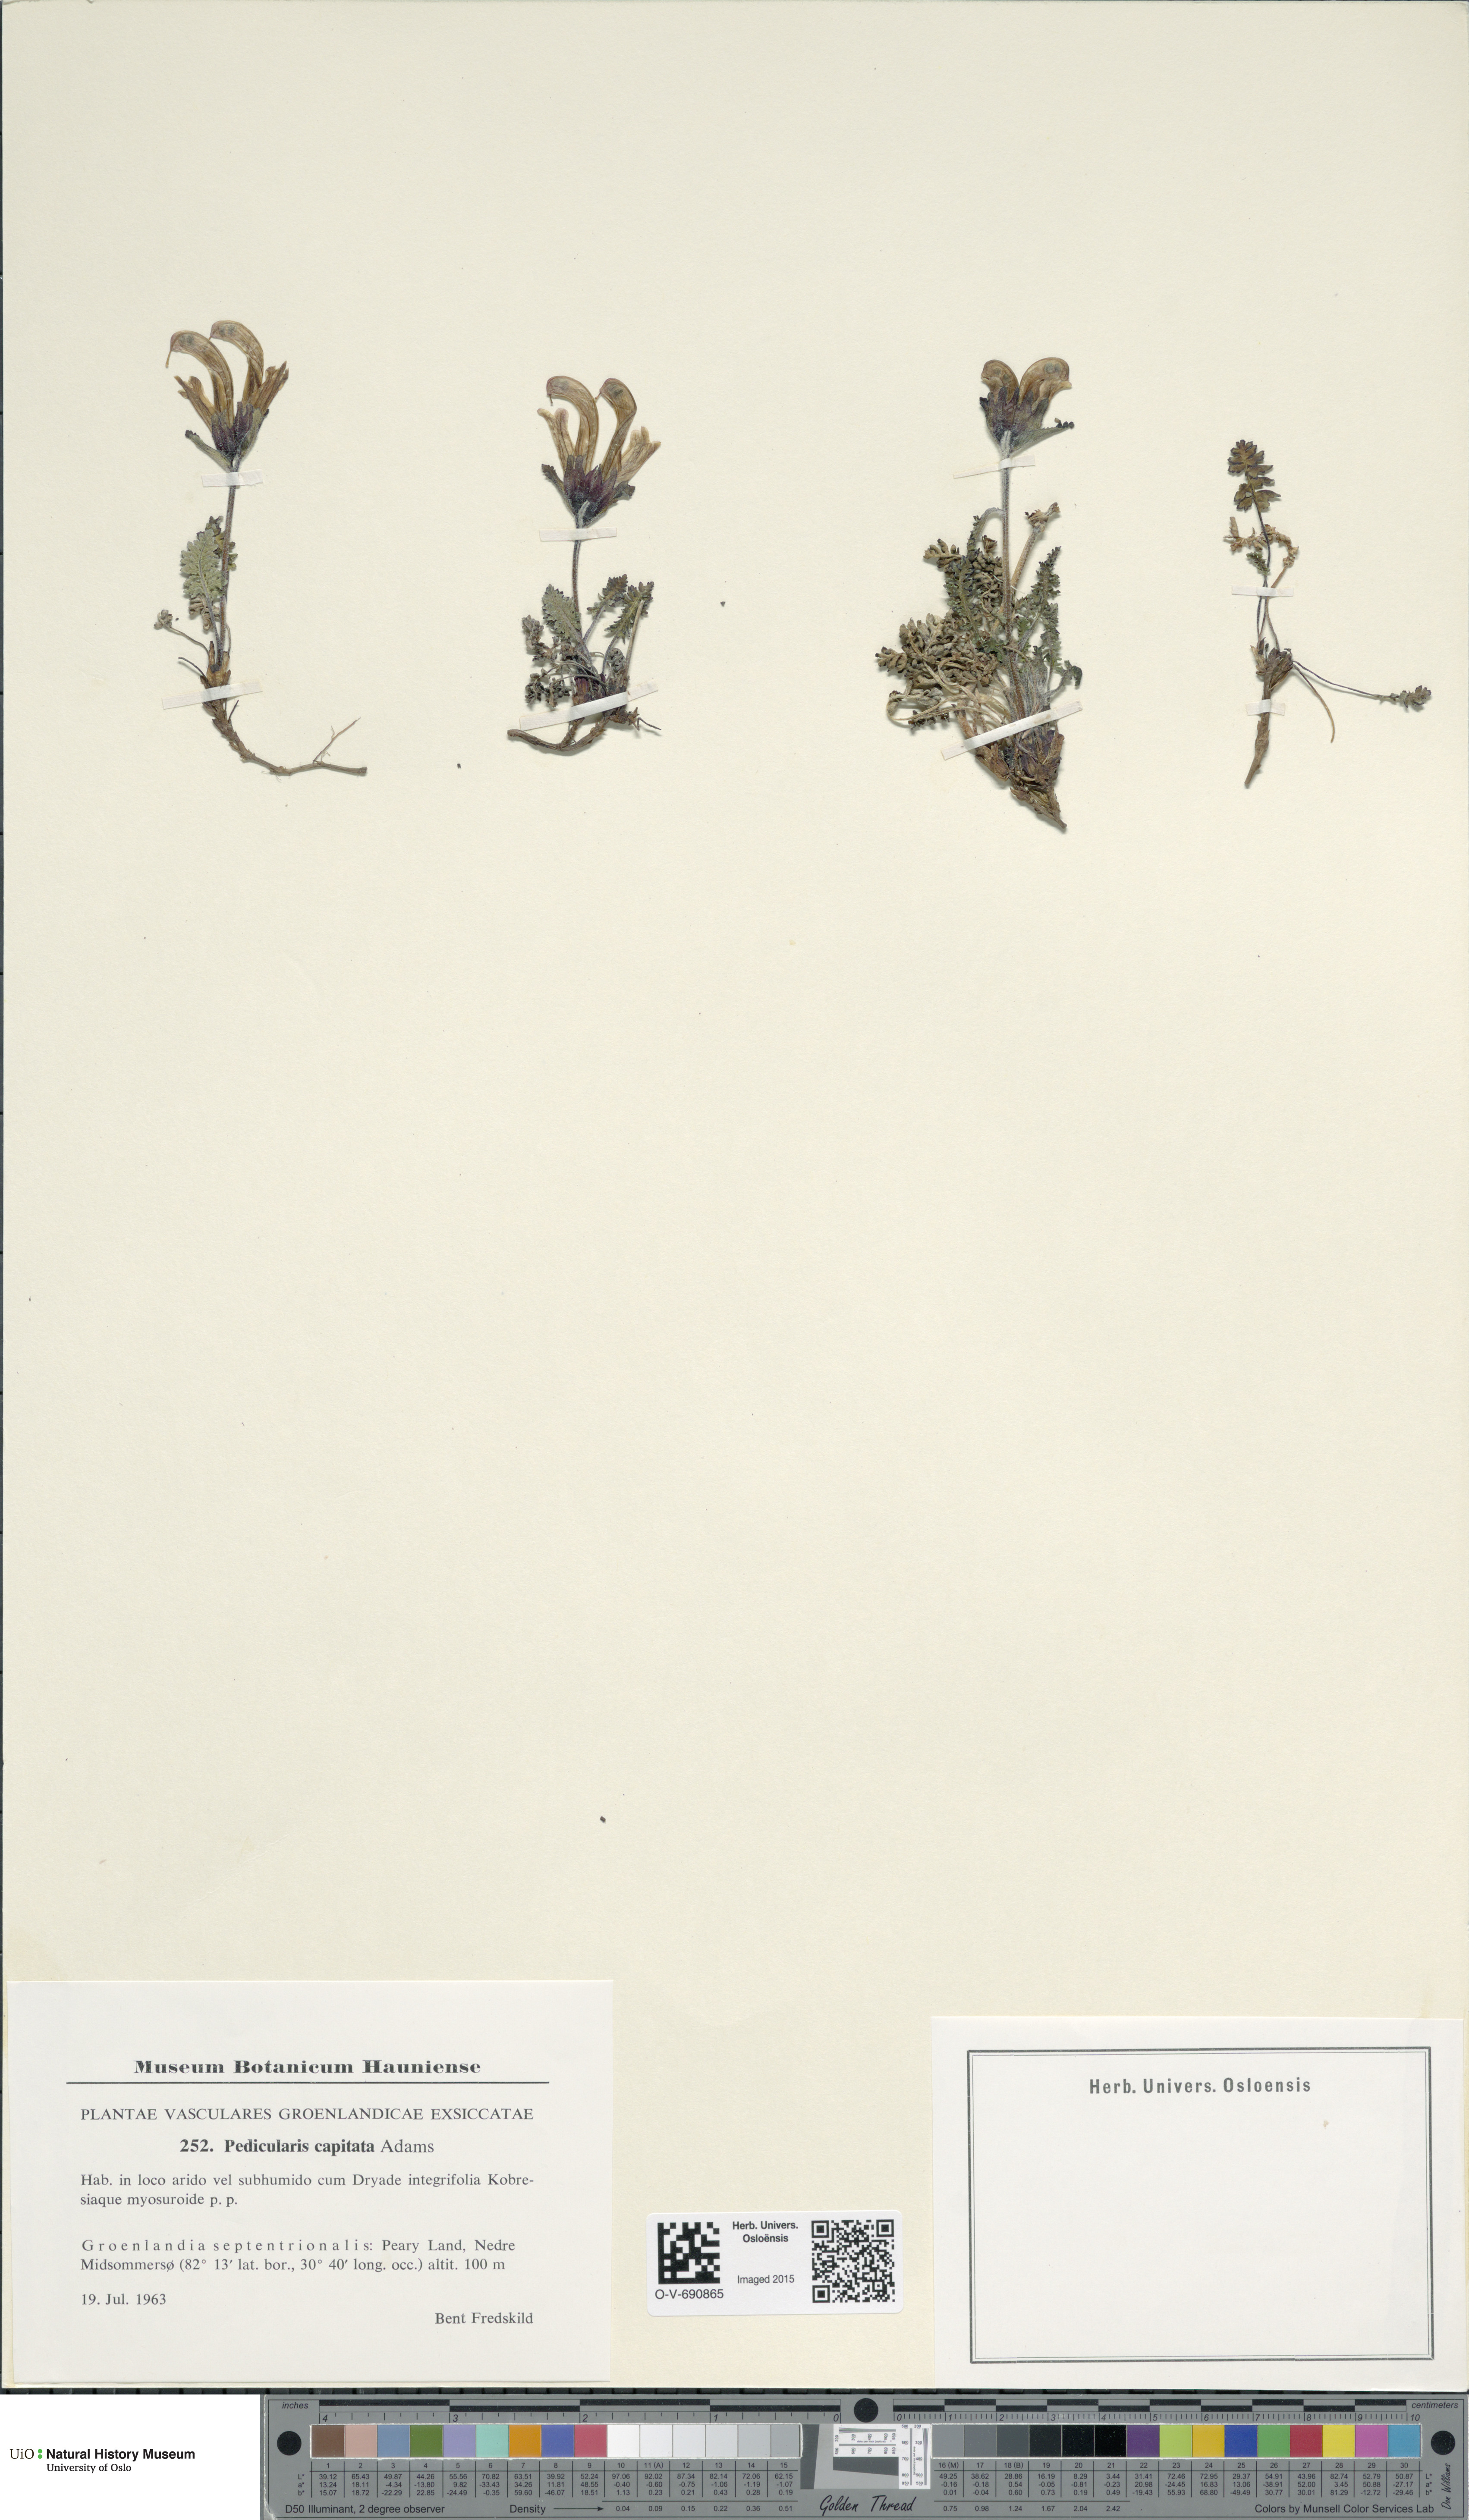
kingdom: Plantae
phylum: Tracheophyta
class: Magnoliopsida
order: Lamiales
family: Orobanchaceae
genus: Pedicularis
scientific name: Pedicularis capitata
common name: Capitate lousewort
